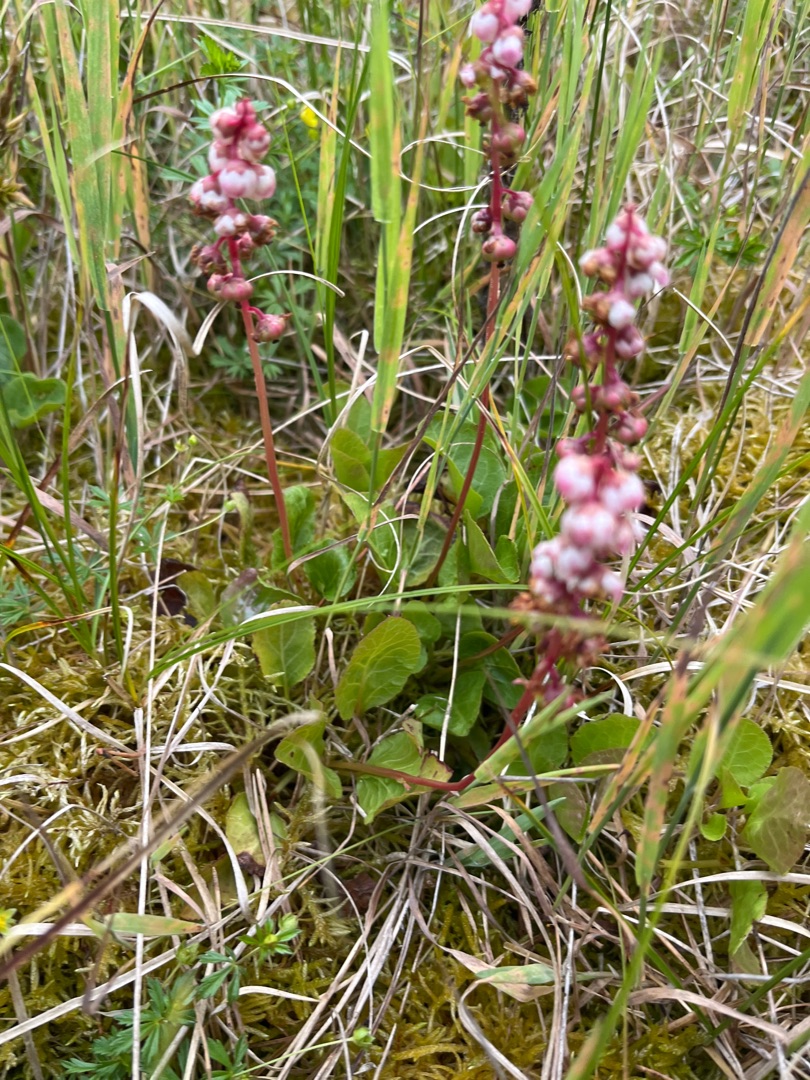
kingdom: Plantae
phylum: Tracheophyta
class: Magnoliopsida
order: Ericales
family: Ericaceae
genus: Pyrola
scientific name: Pyrola minor
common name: Liden vintergrøn
